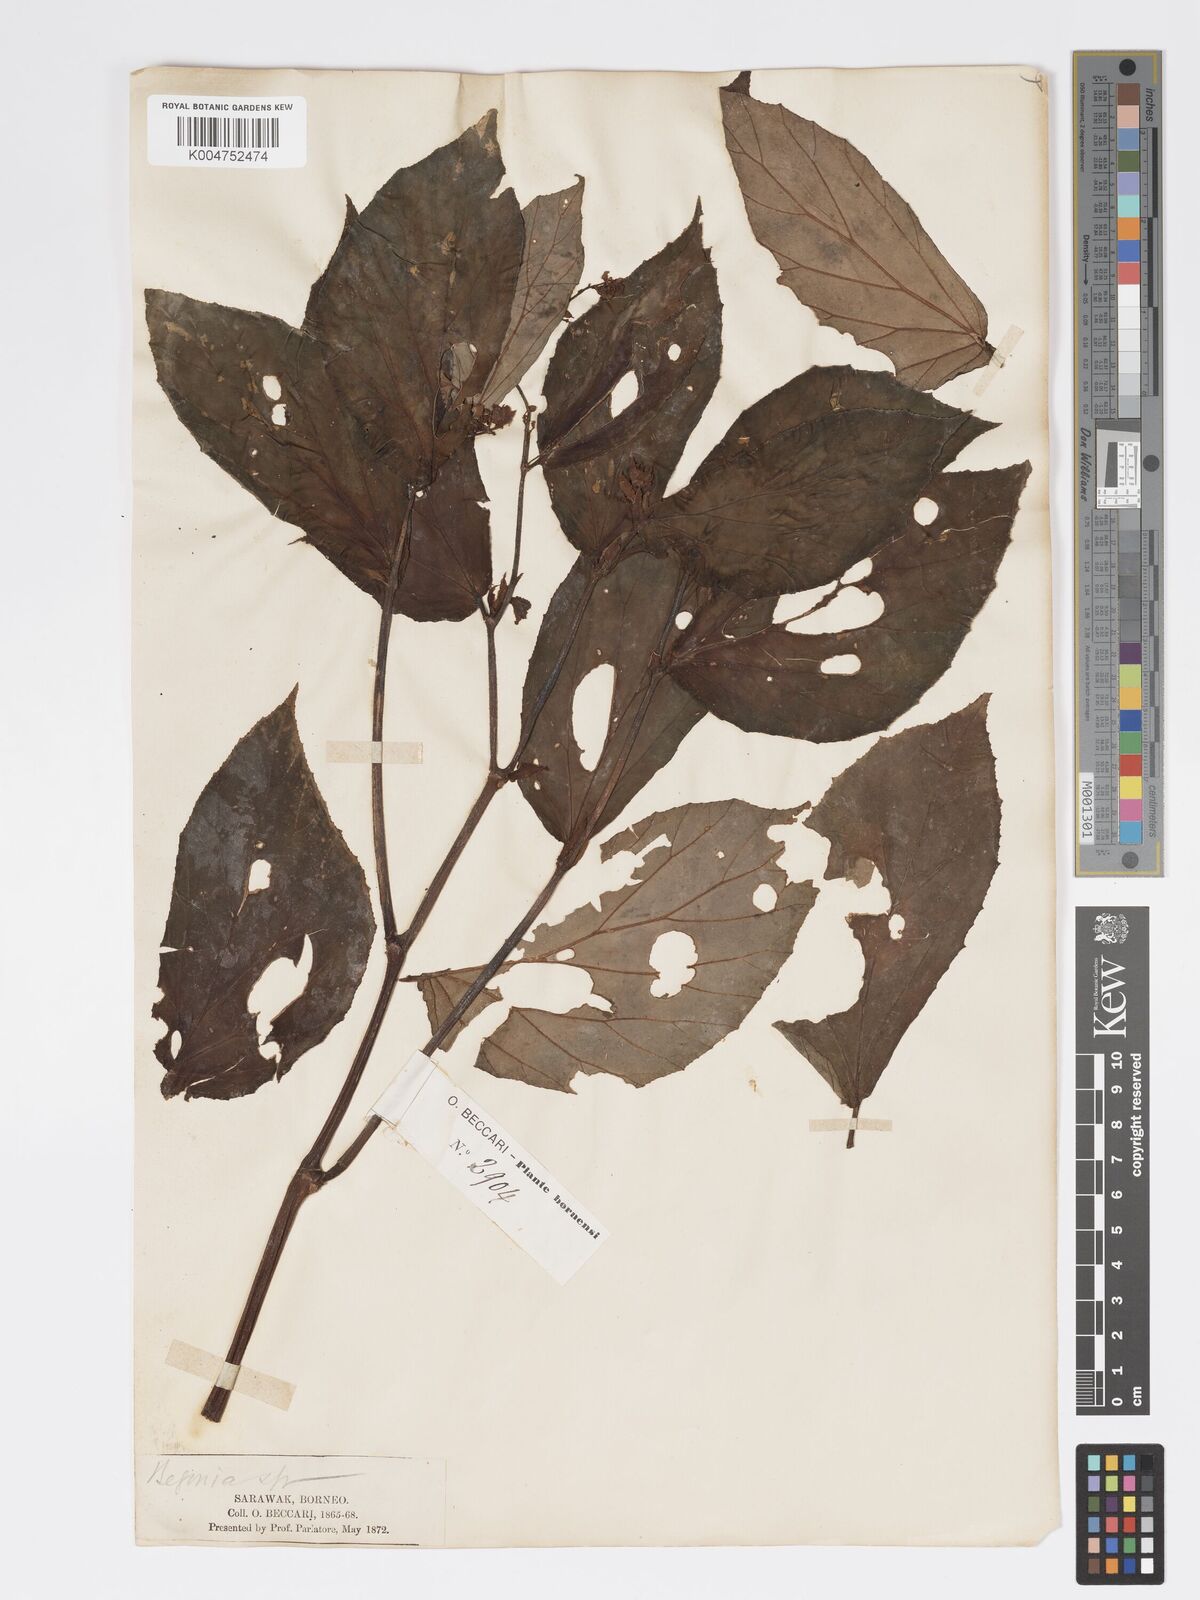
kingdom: Plantae
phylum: Tracheophyta
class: Magnoliopsida
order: Cucurbitales
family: Begoniaceae
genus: Begonia
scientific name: Begonia oblongifolia
